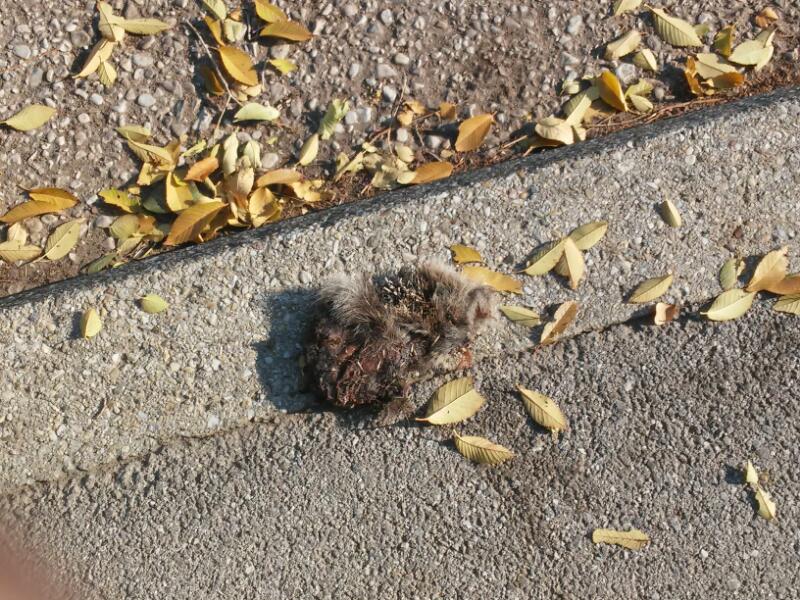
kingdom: Animalia
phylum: Chordata
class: Mammalia
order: Erinaceomorpha
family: Erinaceidae
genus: Erinaceus
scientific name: Erinaceus
